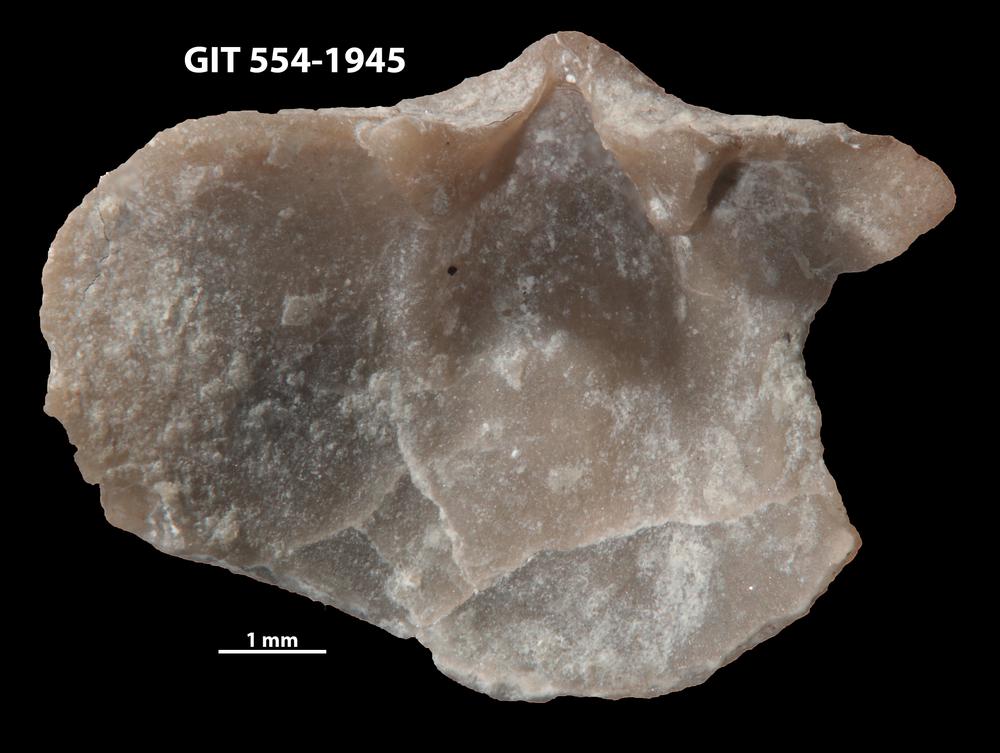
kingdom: Animalia
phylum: Brachiopoda
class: Rhynchonellata
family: Dalmanellidae
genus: Onniella
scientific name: Onniella trigona
